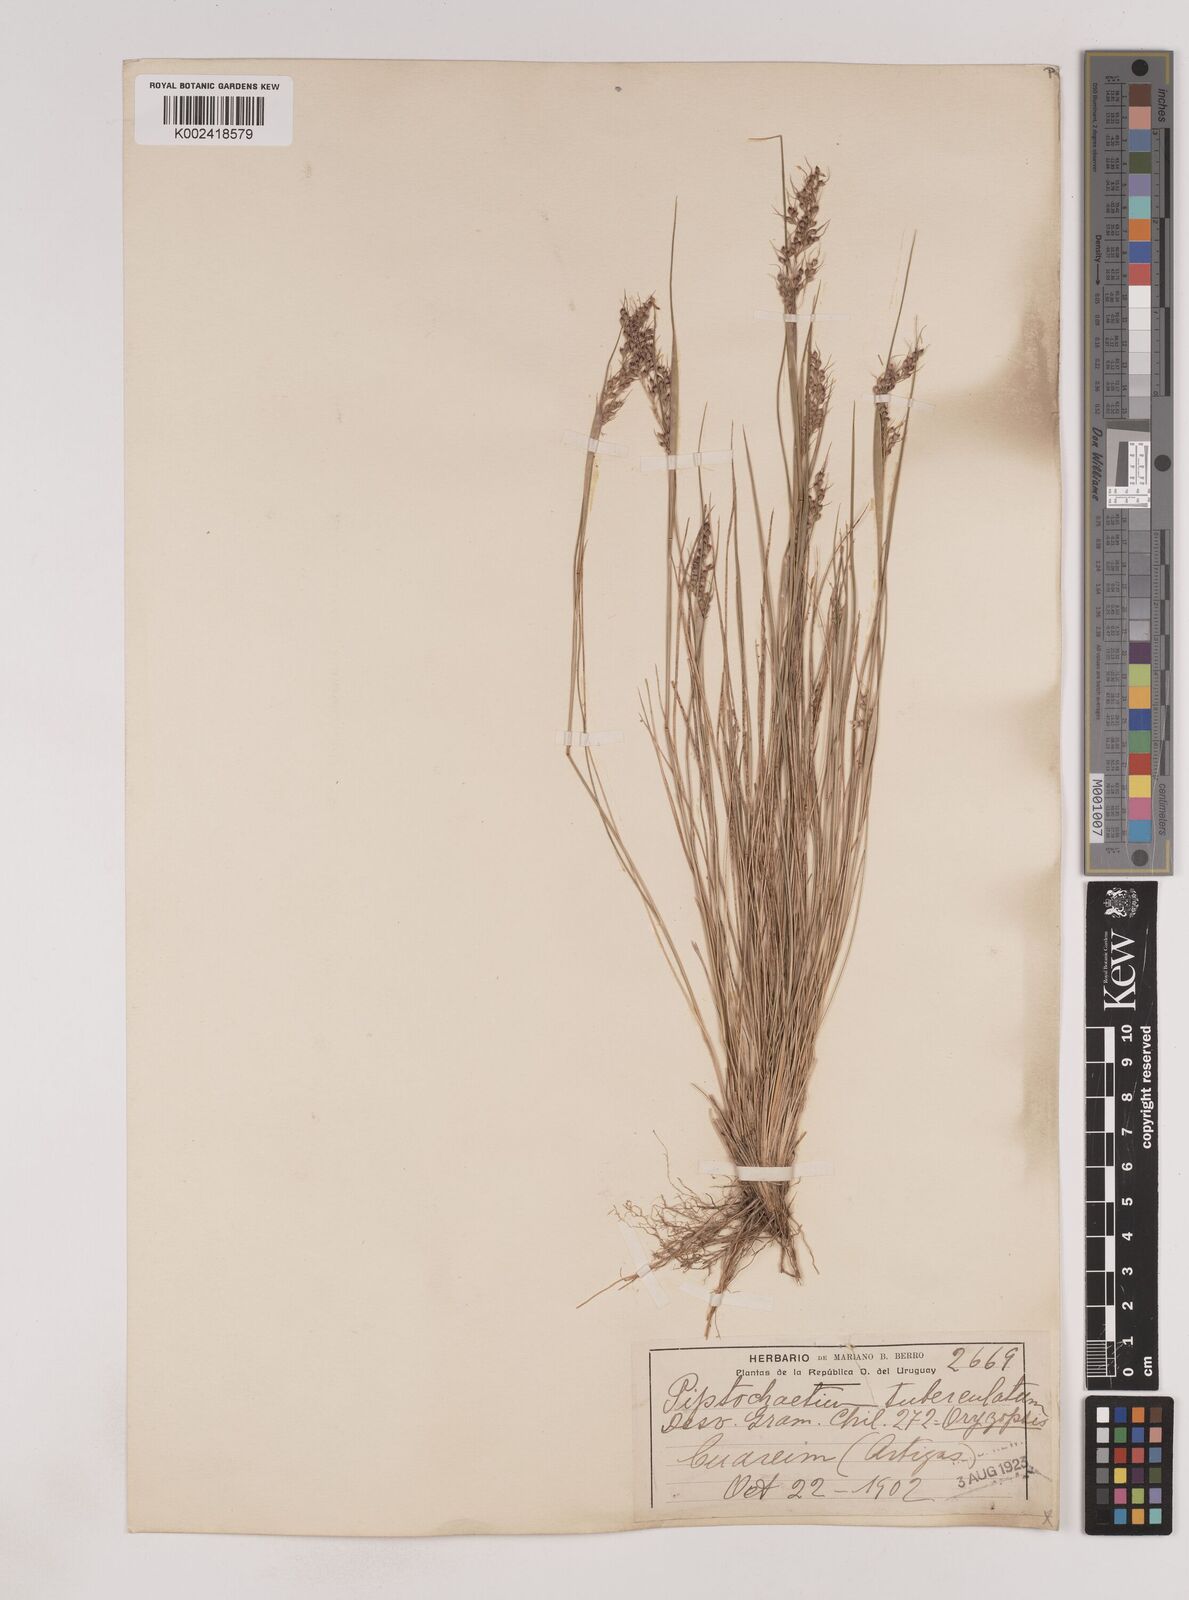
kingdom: Plantae
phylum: Tracheophyta
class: Liliopsida
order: Poales
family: Poaceae
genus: Piptochaetium
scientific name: Piptochaetium montevidense
